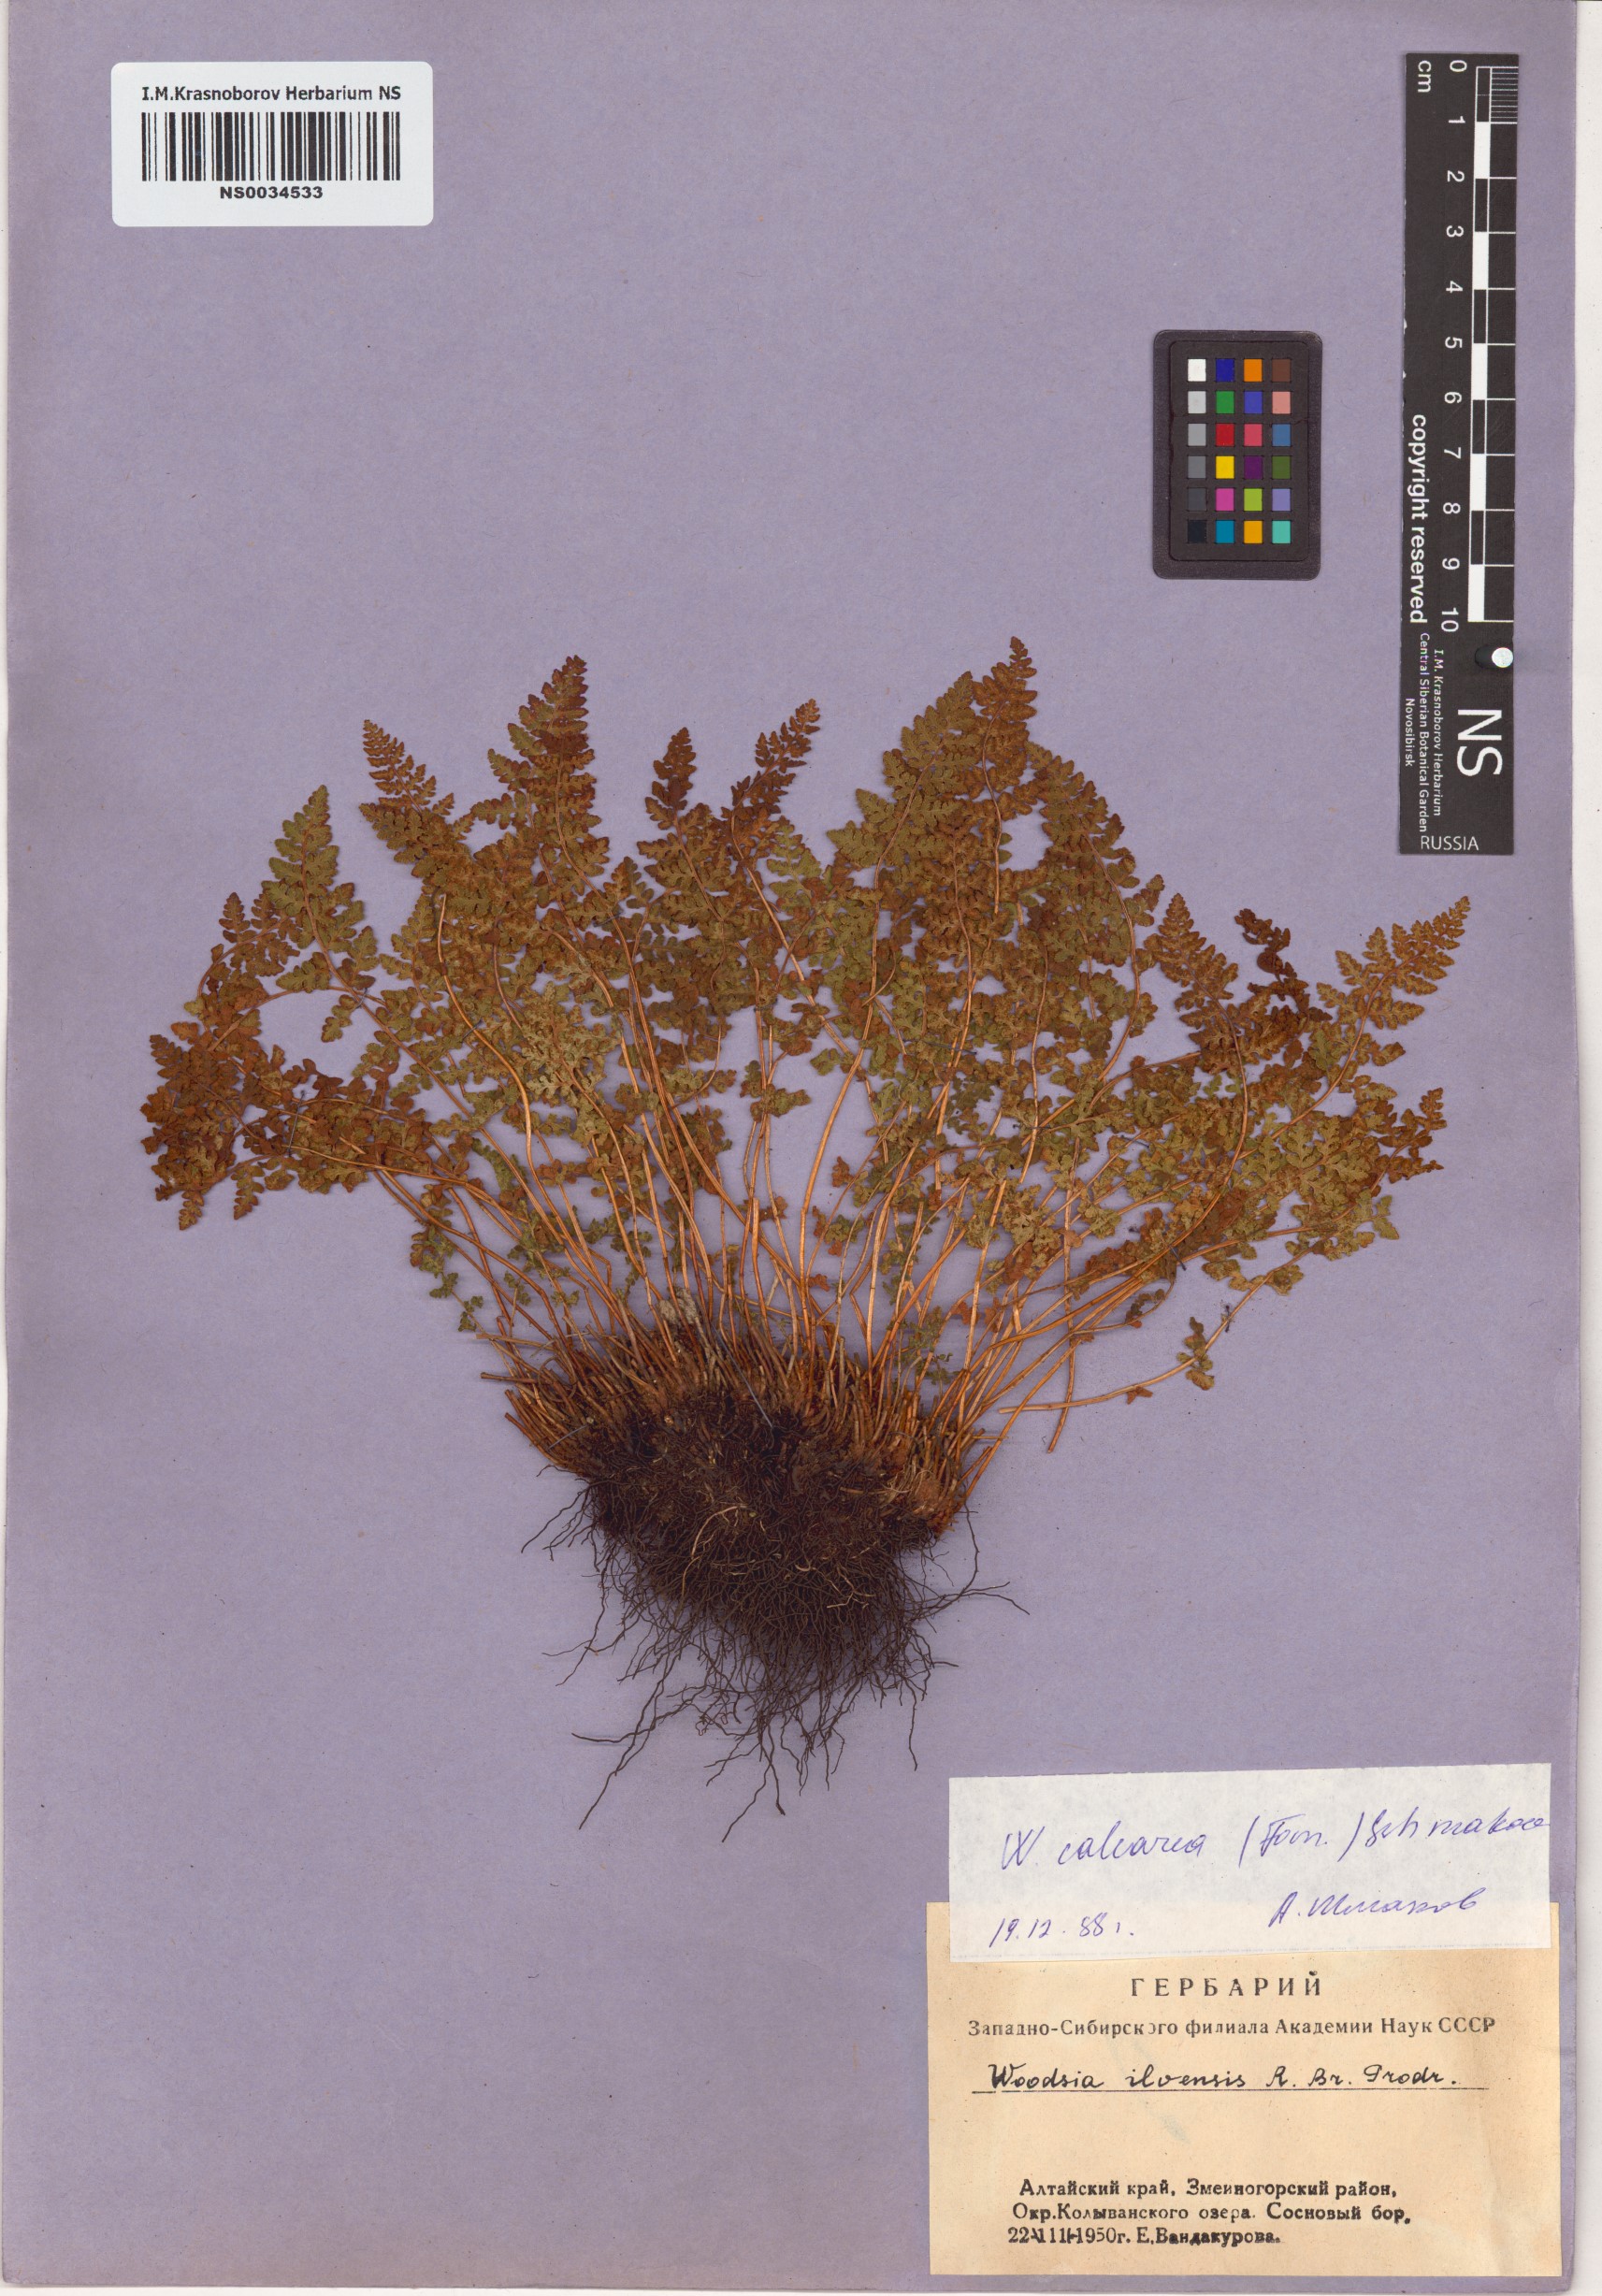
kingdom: Plantae
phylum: Tracheophyta
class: Polypodiopsida
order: Polypodiales
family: Woodsiaceae
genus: Woodsia
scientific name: Woodsia calcarea
